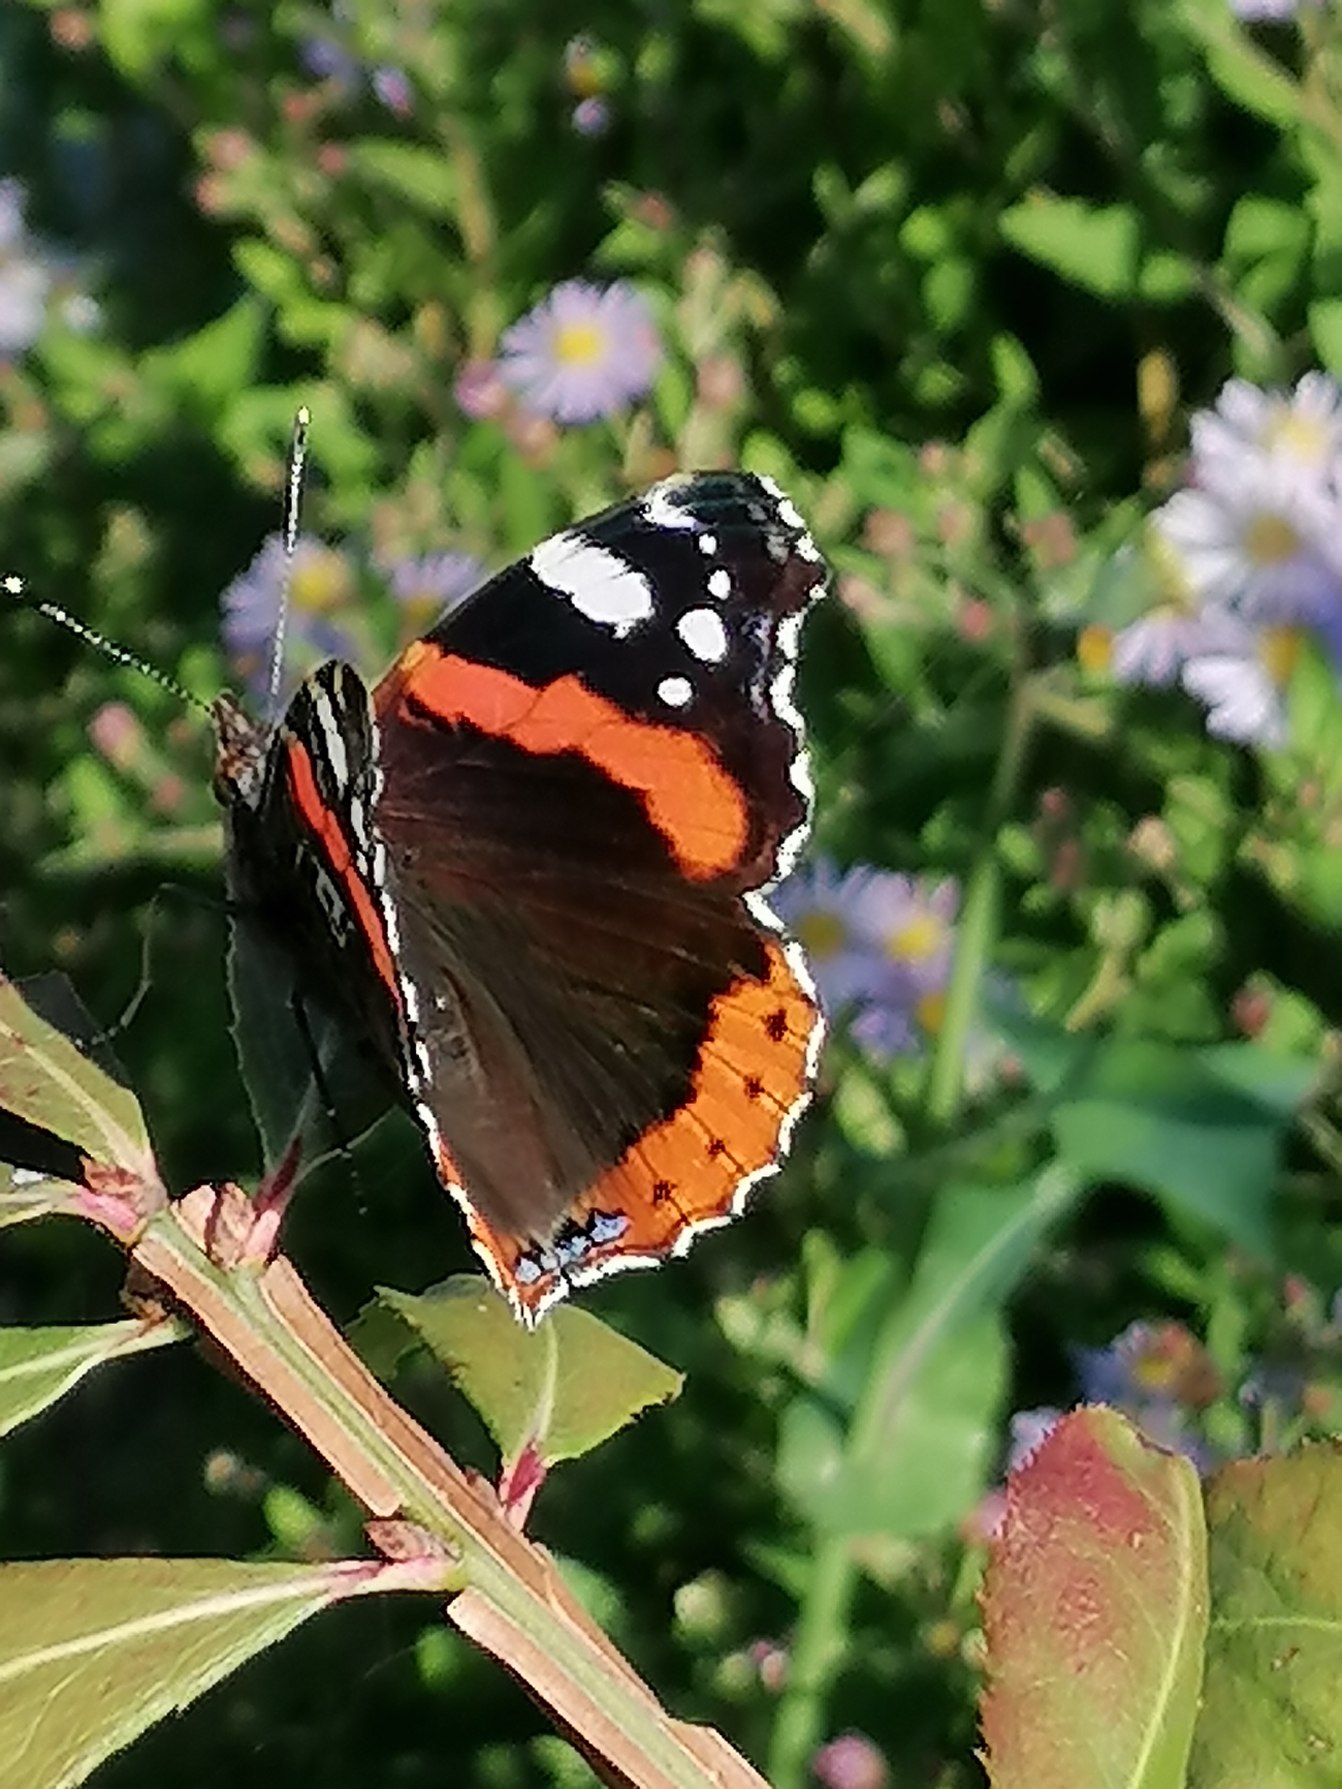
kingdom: Animalia
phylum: Arthropoda
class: Insecta
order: Lepidoptera
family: Nymphalidae
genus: Vanessa
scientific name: Vanessa atalanta
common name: Admiral
